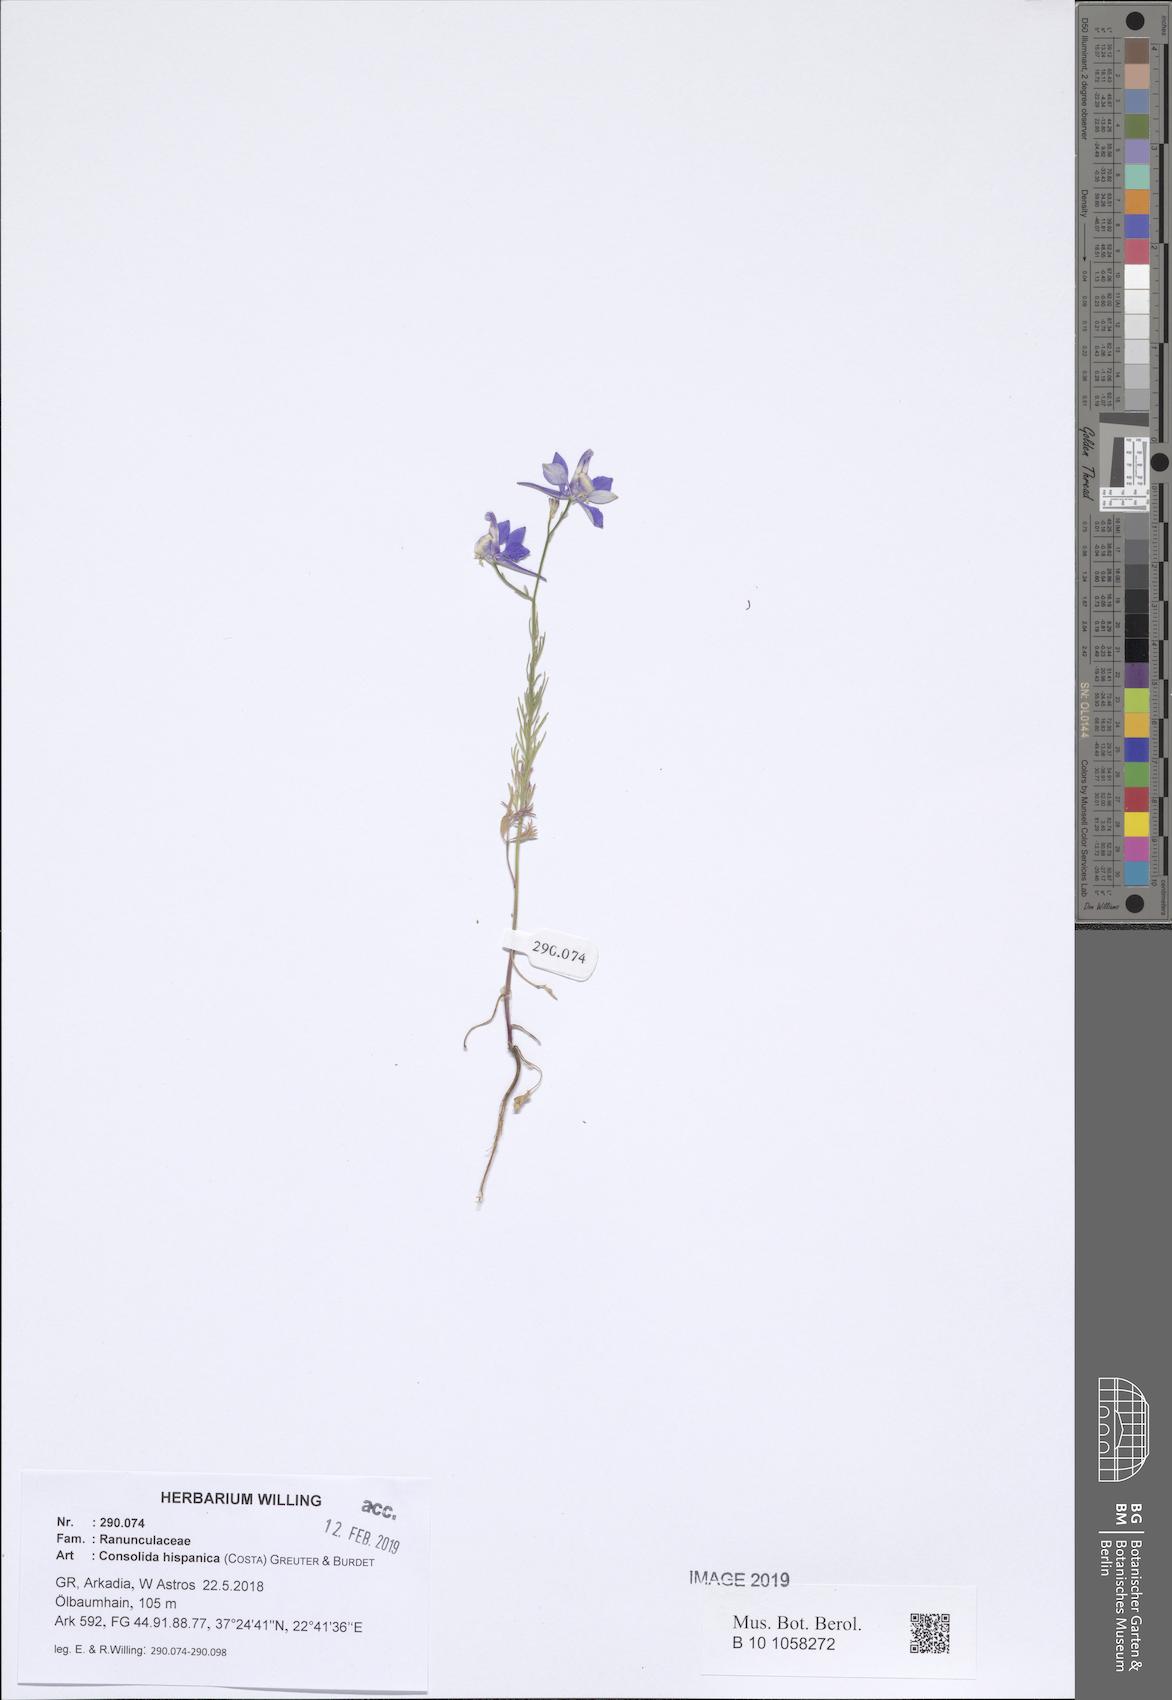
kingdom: Plantae
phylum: Tracheophyta
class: Magnoliopsida
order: Ranunculales
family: Ranunculaceae
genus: Delphinium
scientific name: Delphinium hispanicum
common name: Oriental knight's-spur
